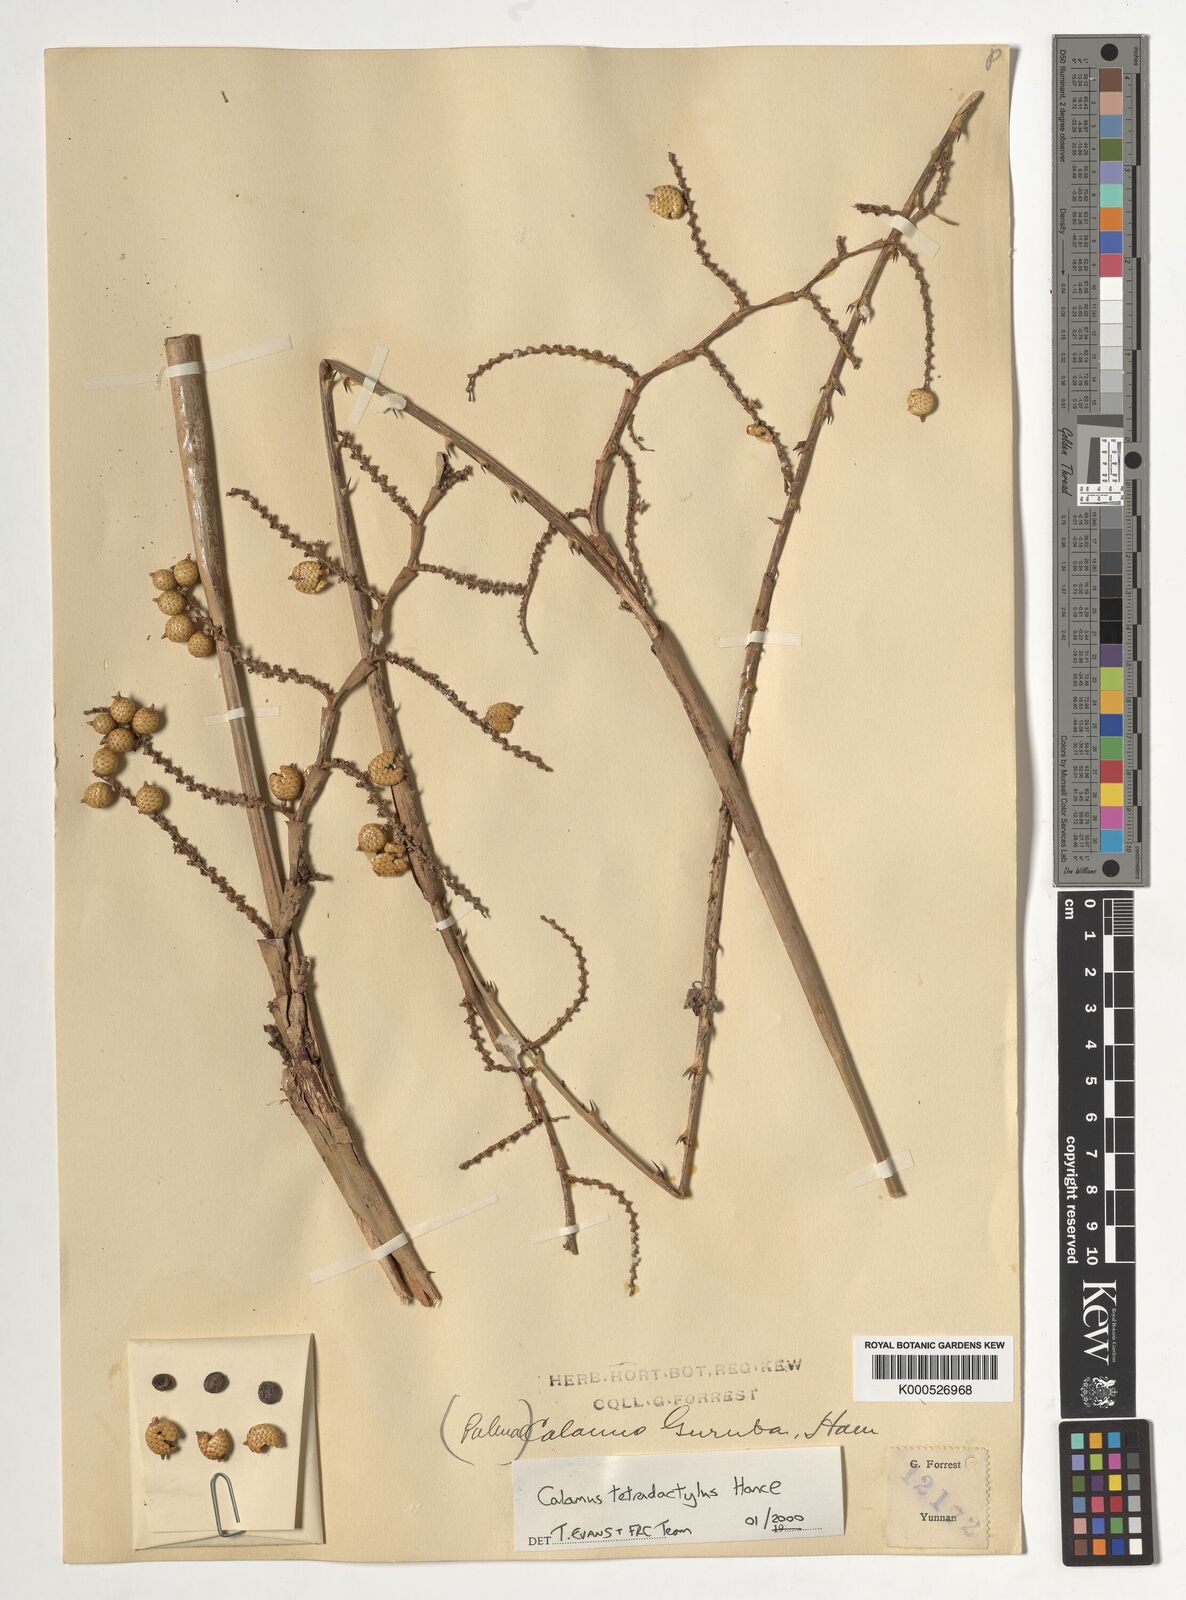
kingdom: Plantae
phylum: Tracheophyta
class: Liliopsida
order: Arecales
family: Arecaceae
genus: Calamus
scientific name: Calamus tetradactylus
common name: White rattan
